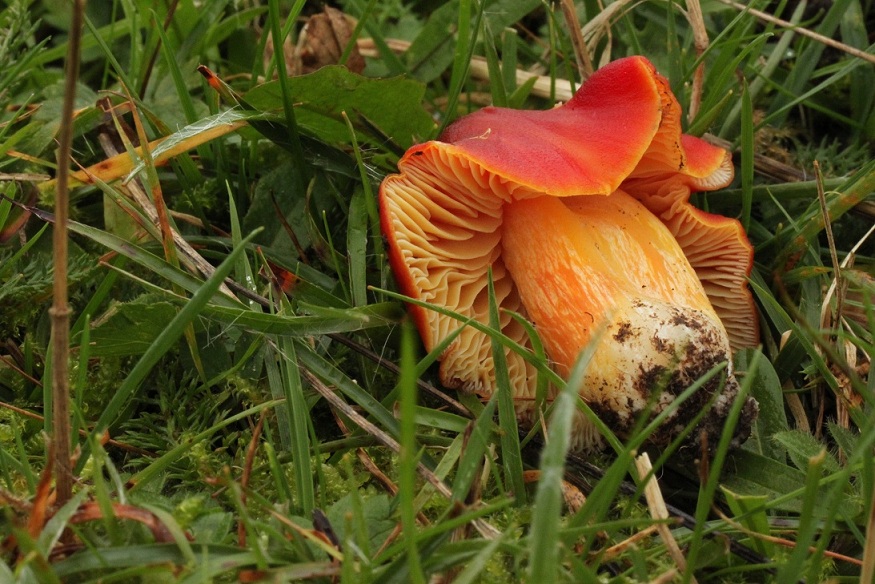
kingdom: Fungi
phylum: Basidiomycota
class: Agaricomycetes
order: Agaricales
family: Hygrophoraceae
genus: Hygrocybe
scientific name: Hygrocybe punicea
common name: skarlagen-vokshat
